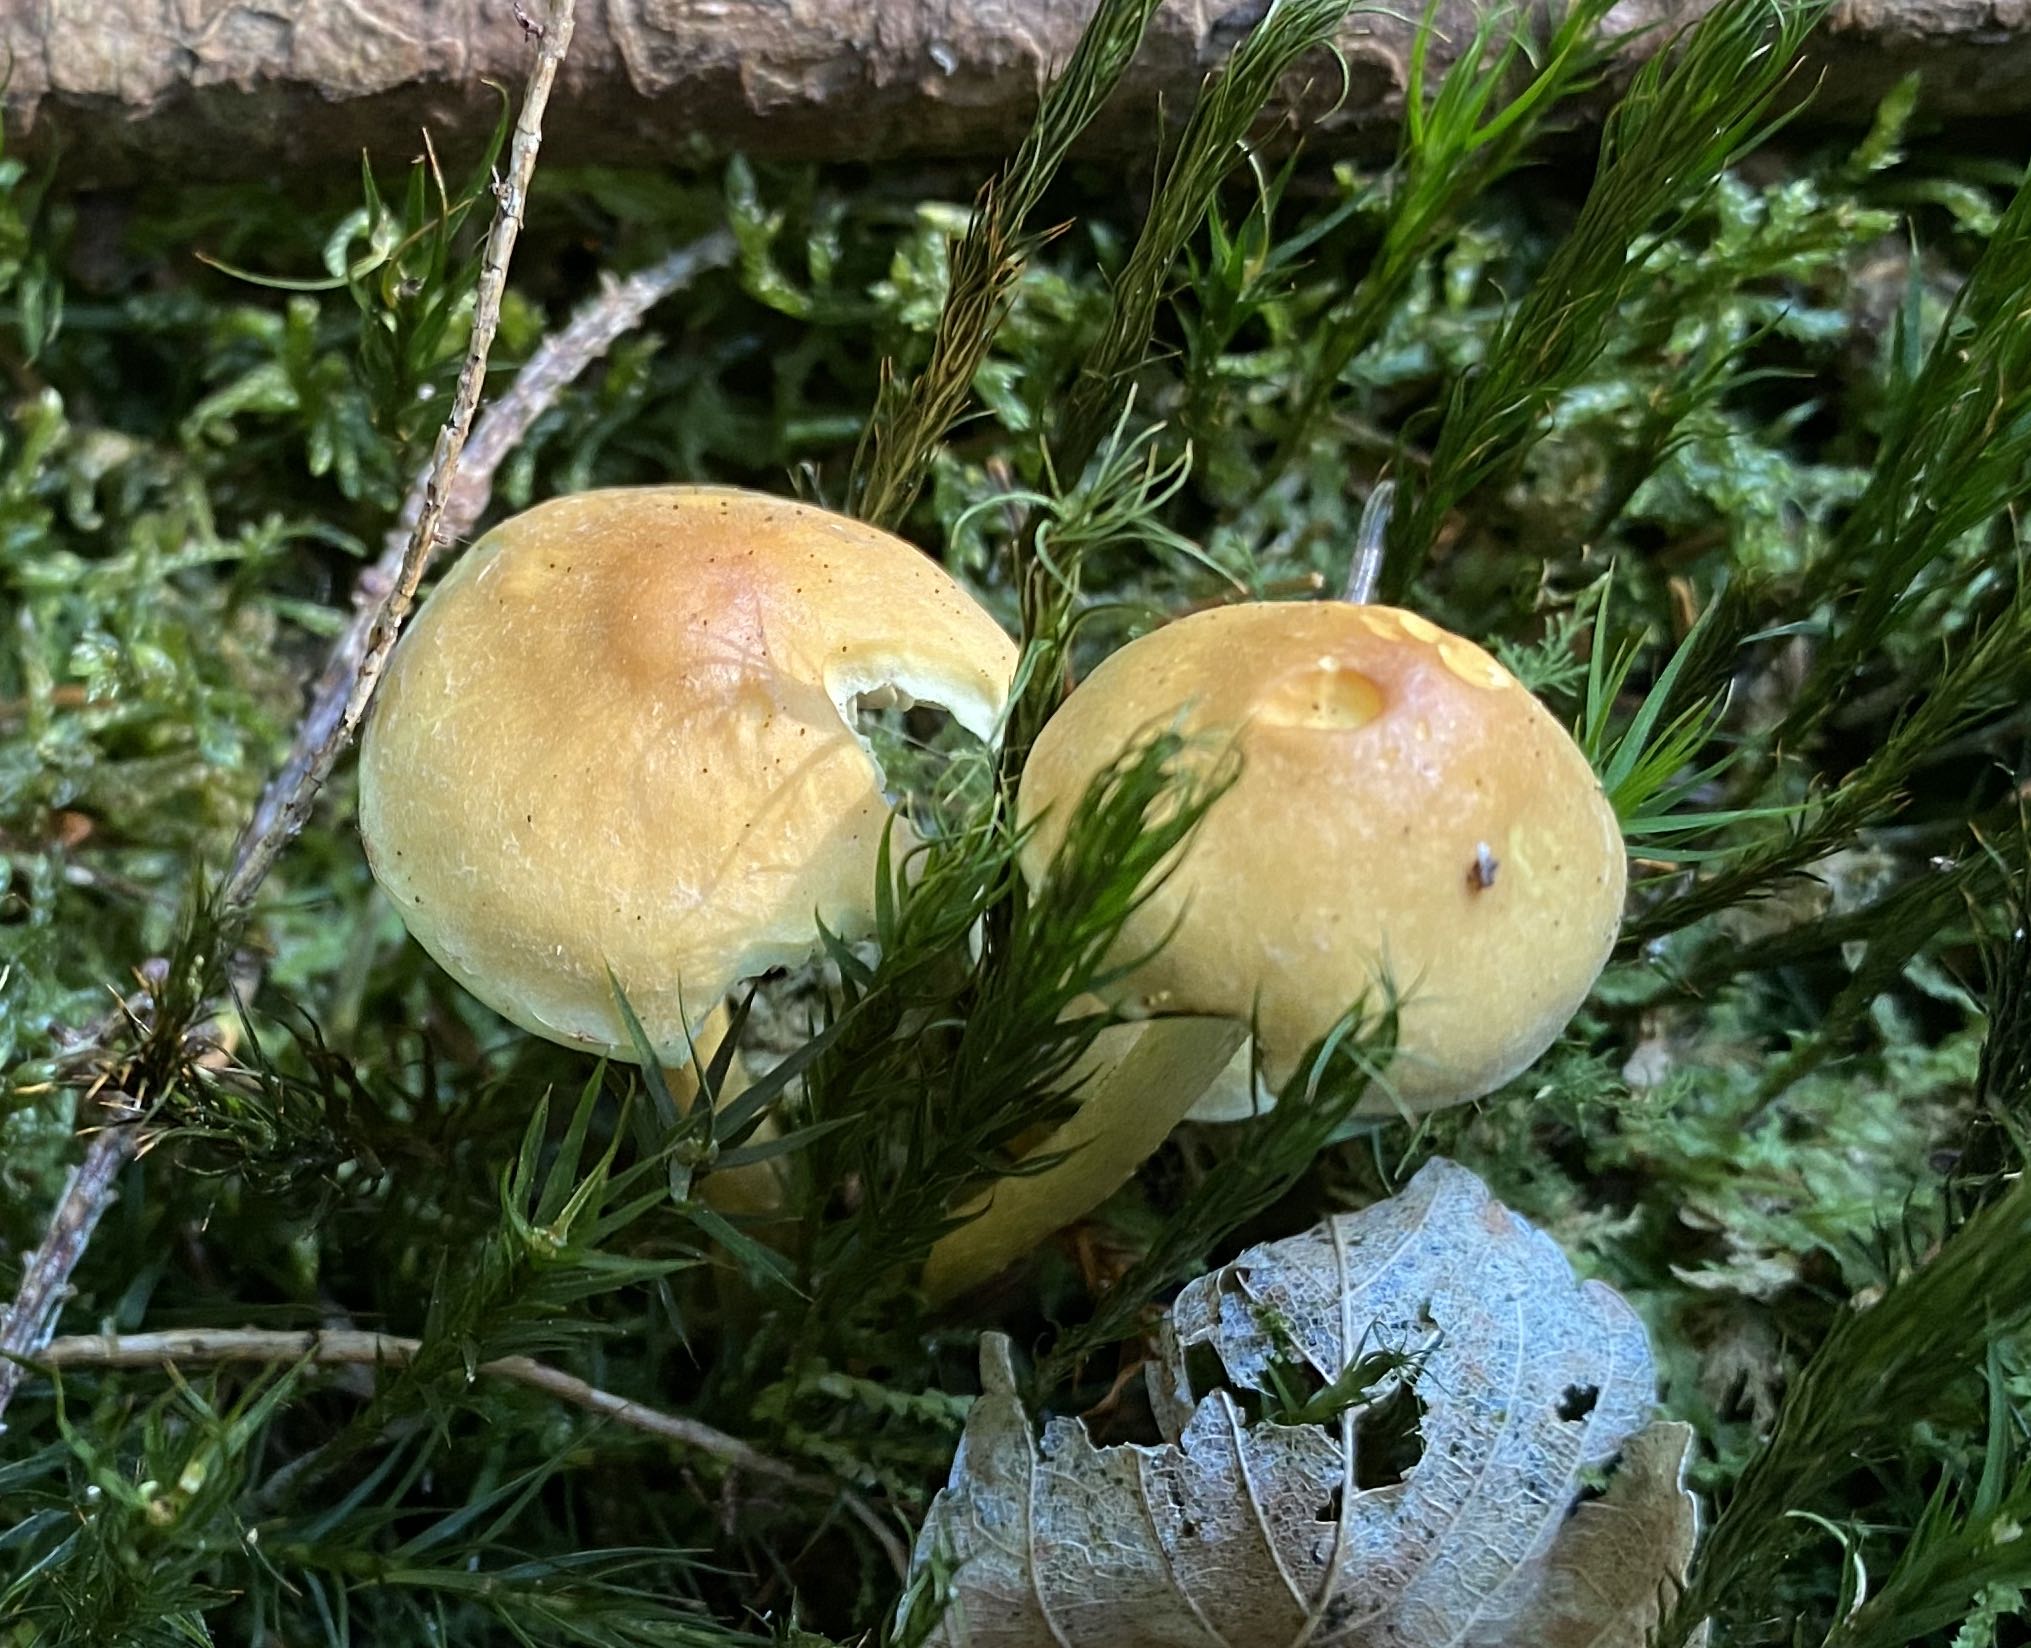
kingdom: Fungi
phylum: Basidiomycota
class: Agaricomycetes
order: Agaricales
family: Strophariaceae
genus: Hypholoma
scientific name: Hypholoma capnoides
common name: gran-svovlhat
